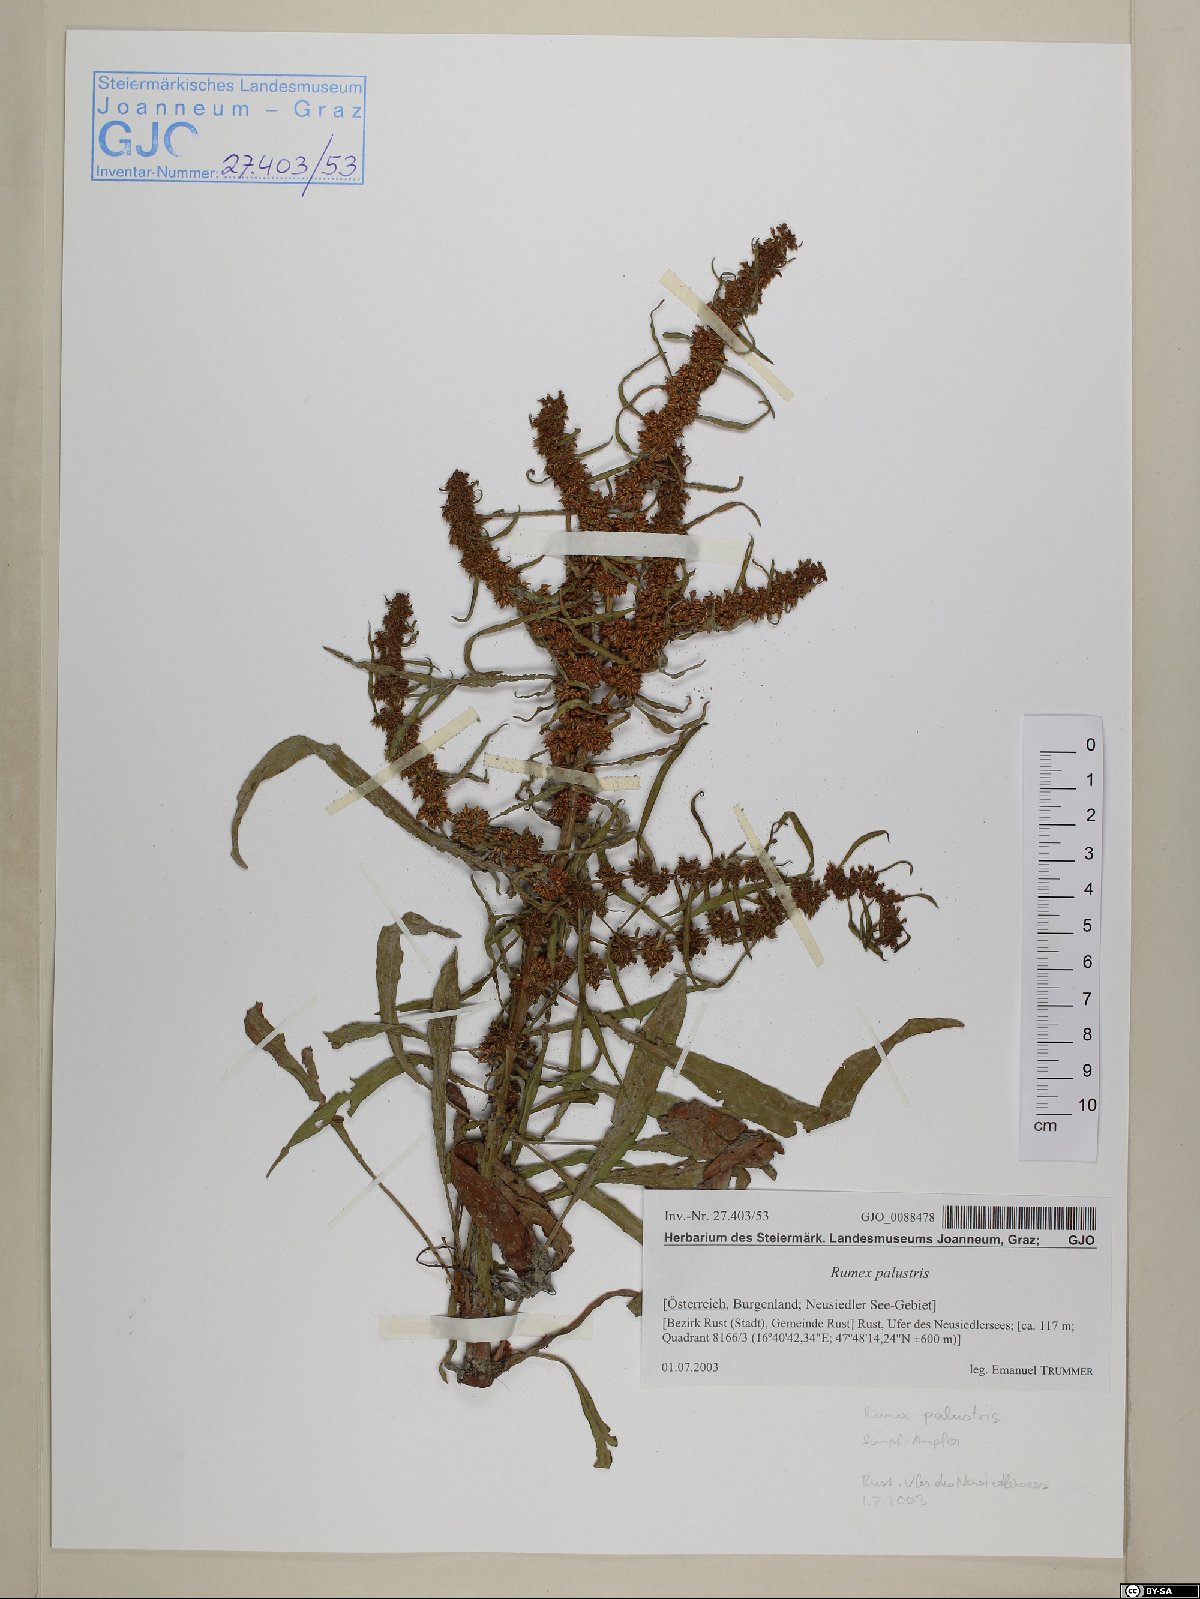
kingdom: Plantae
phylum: Tracheophyta
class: Magnoliopsida
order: Caryophyllales
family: Polygonaceae
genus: Rumex
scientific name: Rumex palustris
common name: Marsh dock
